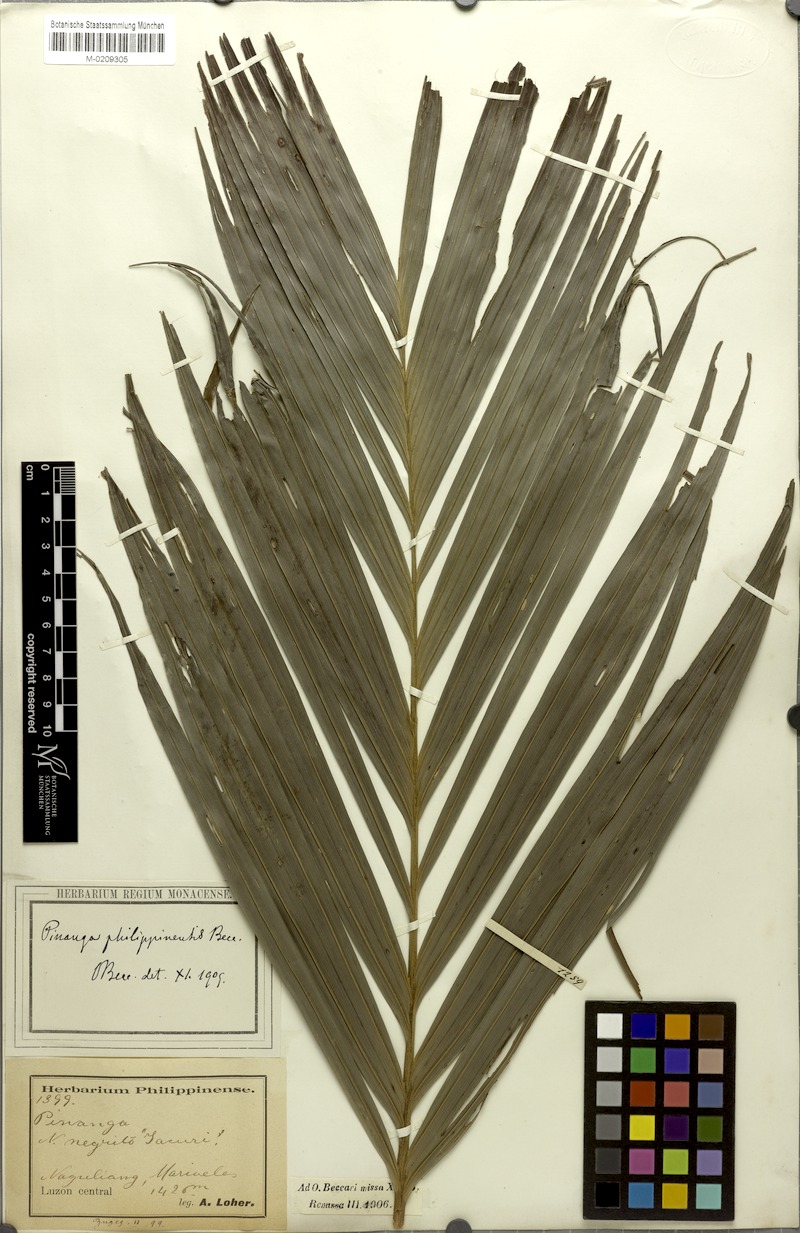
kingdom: Plantae
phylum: Tracheophyta
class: Liliopsida
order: Arecales
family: Arecaceae
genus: Pinanga
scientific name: Pinanga philippinensis
